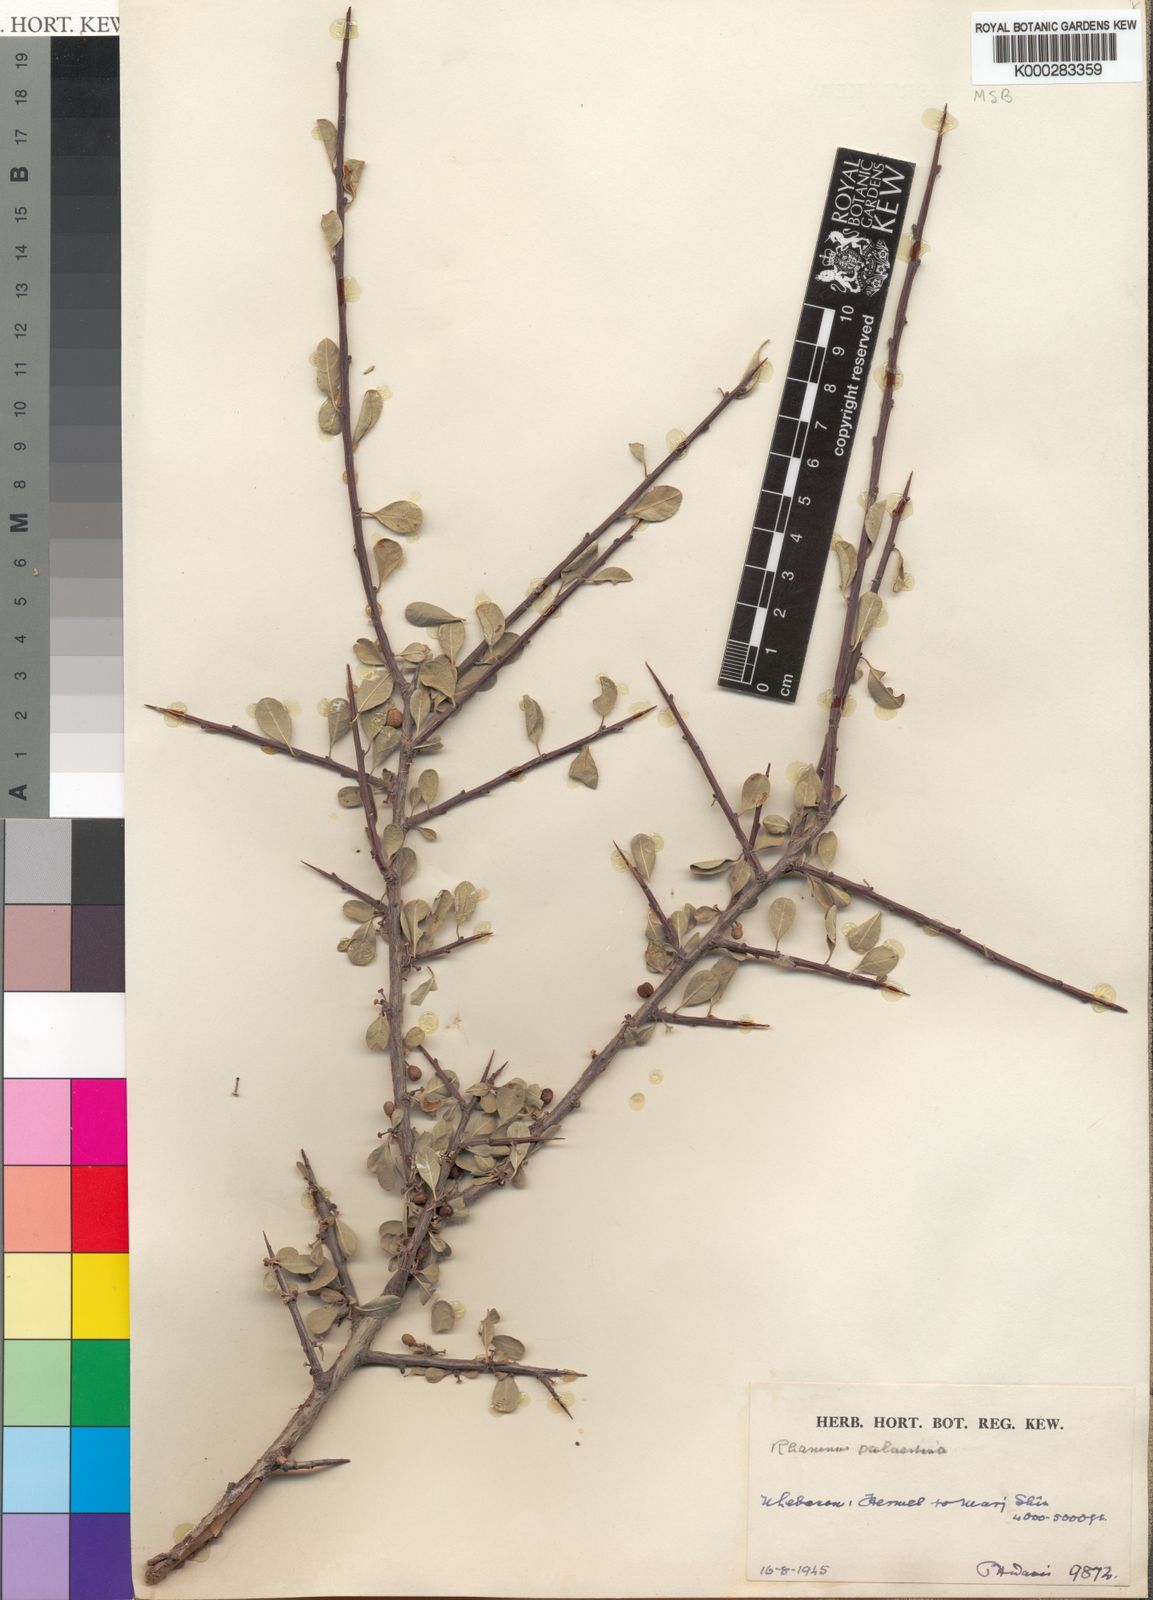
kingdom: Plantae
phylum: Tracheophyta
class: Magnoliopsida
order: Rosales
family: Rhamnaceae
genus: Rhamnus
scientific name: Rhamnus lycioides
